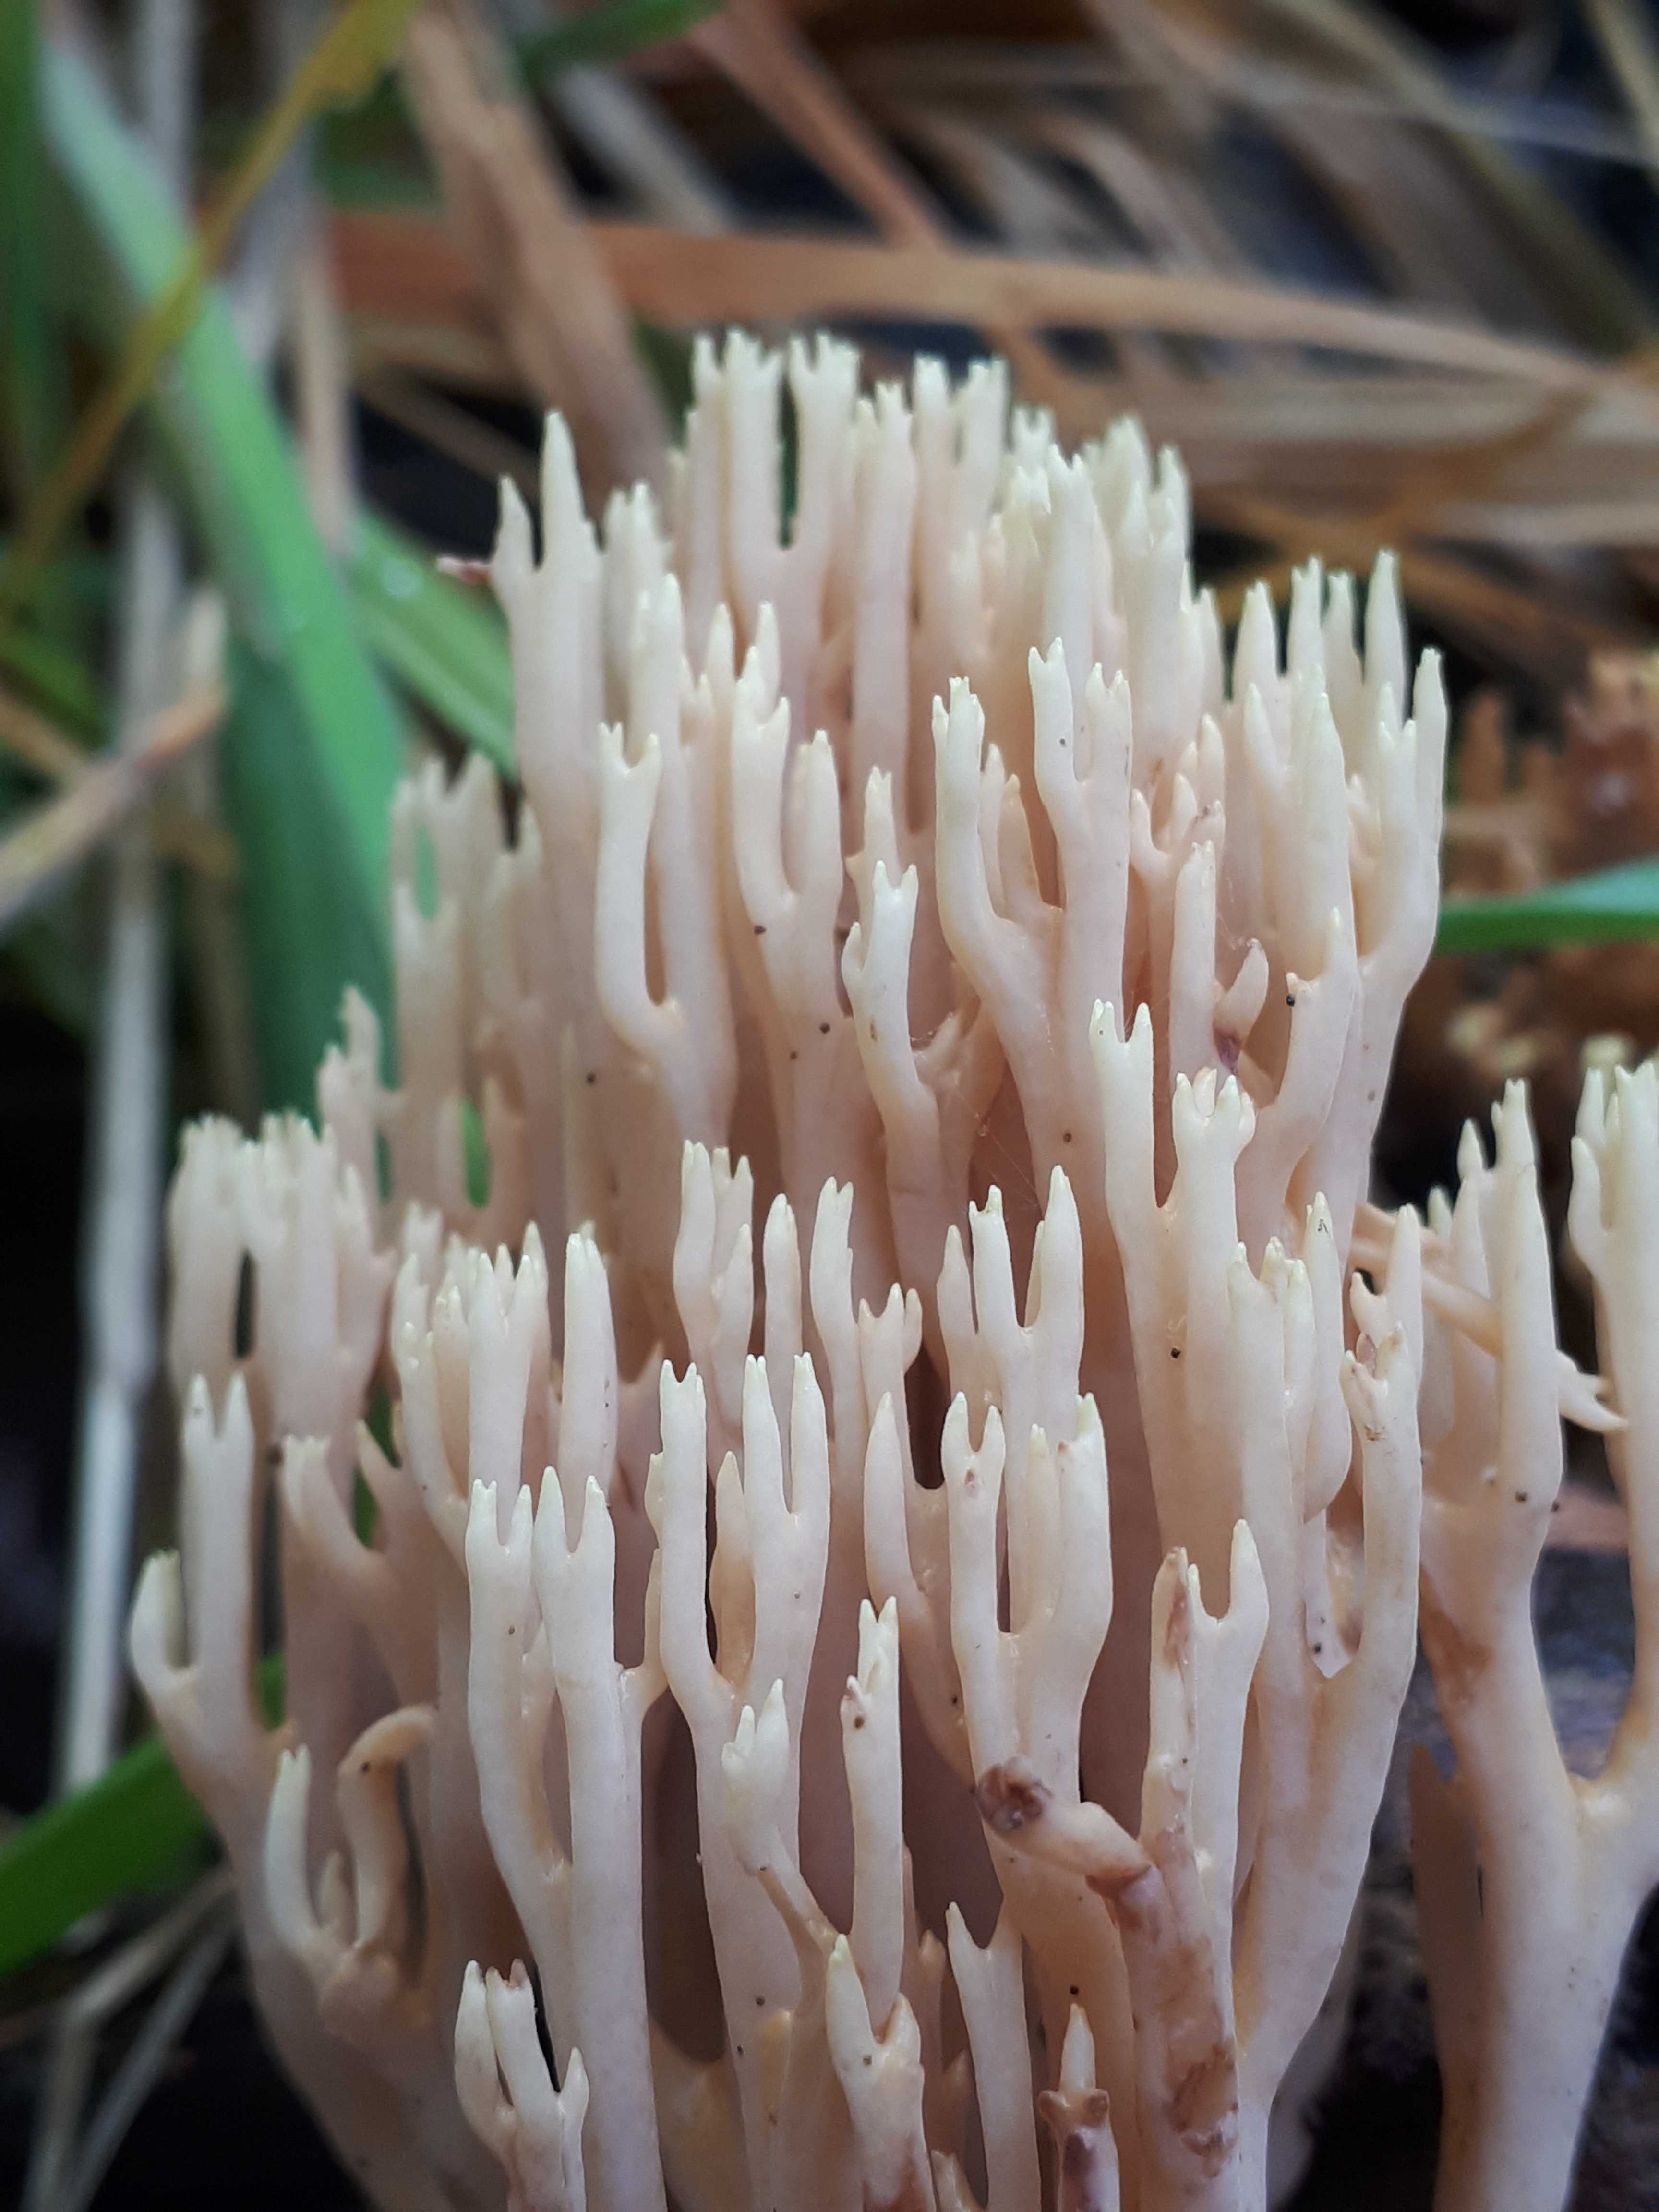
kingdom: Fungi
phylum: Basidiomycota
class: Agaricomycetes
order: Gomphales
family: Gomphaceae
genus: Ramaria
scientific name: Ramaria stricta
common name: rank koralsvamp
